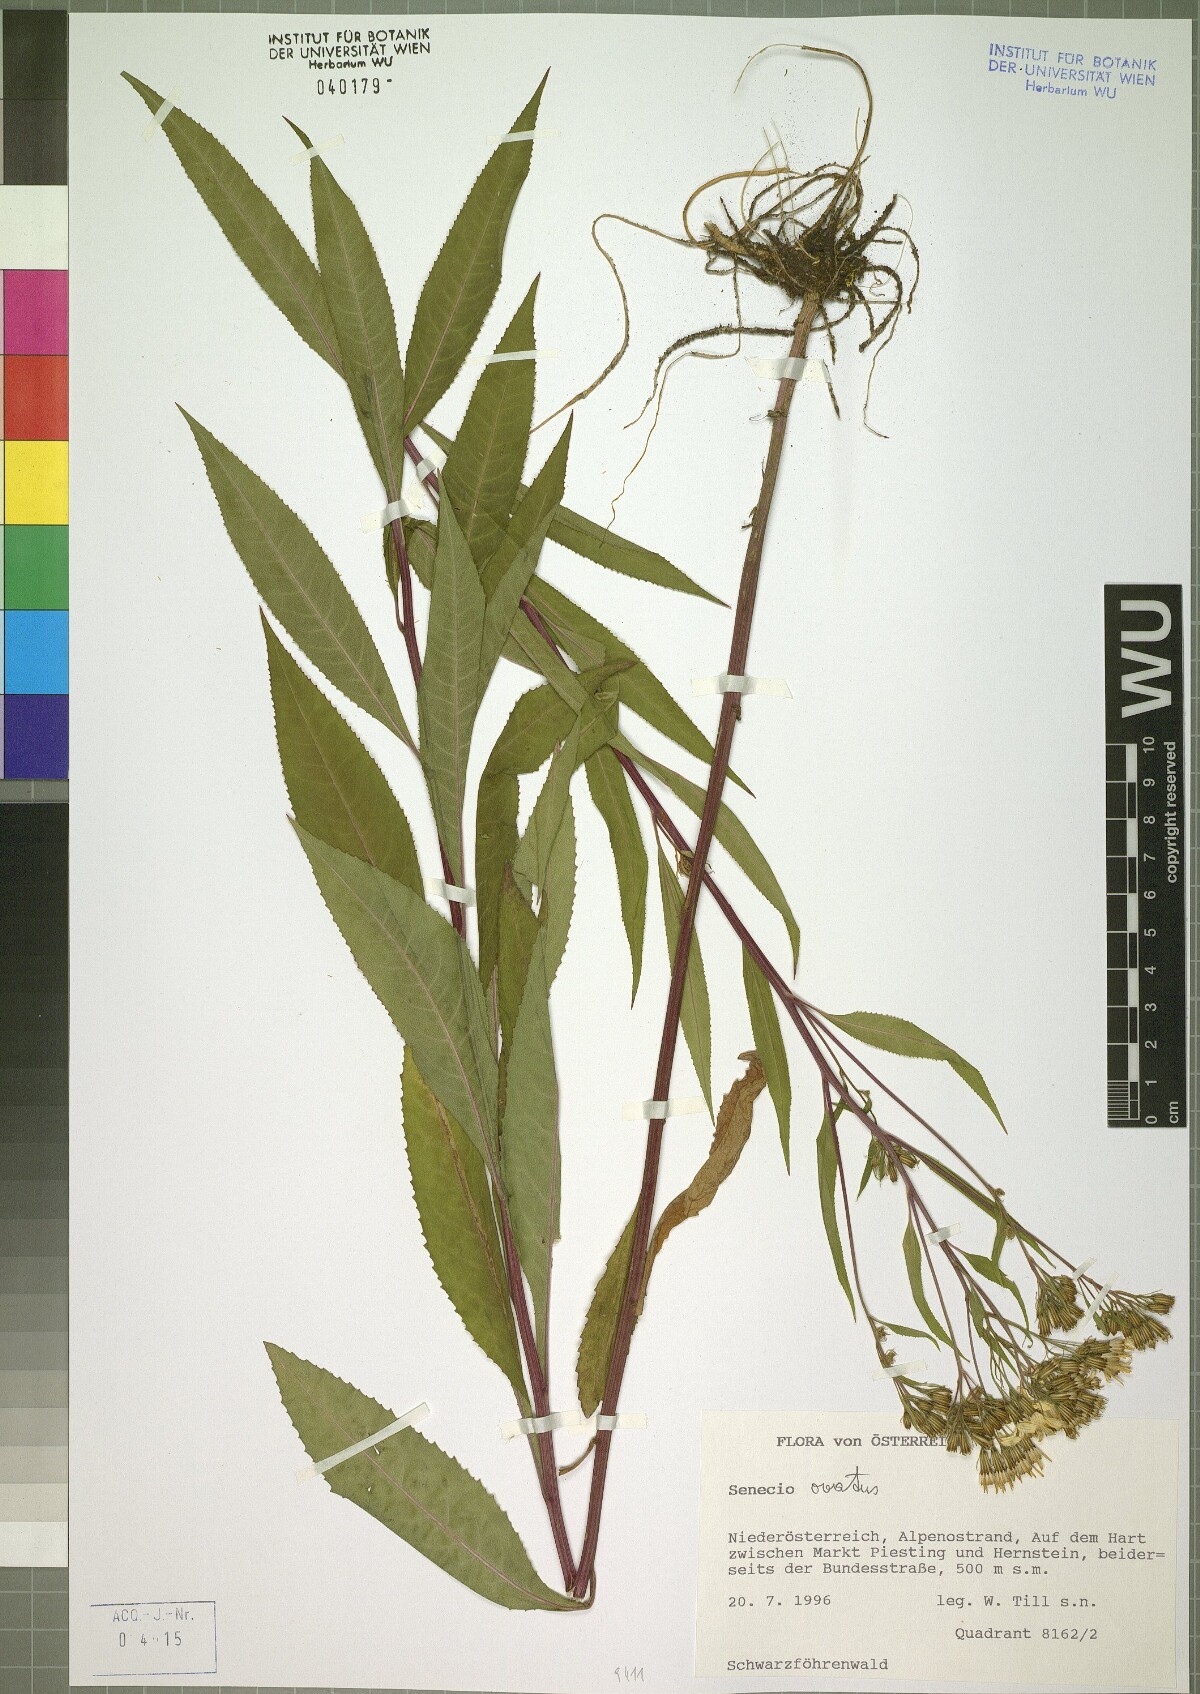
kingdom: Plantae
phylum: Tracheophyta
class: Magnoliopsida
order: Asterales
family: Asteraceae
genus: Senecio
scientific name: Senecio ovatus
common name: Wood ragwort
